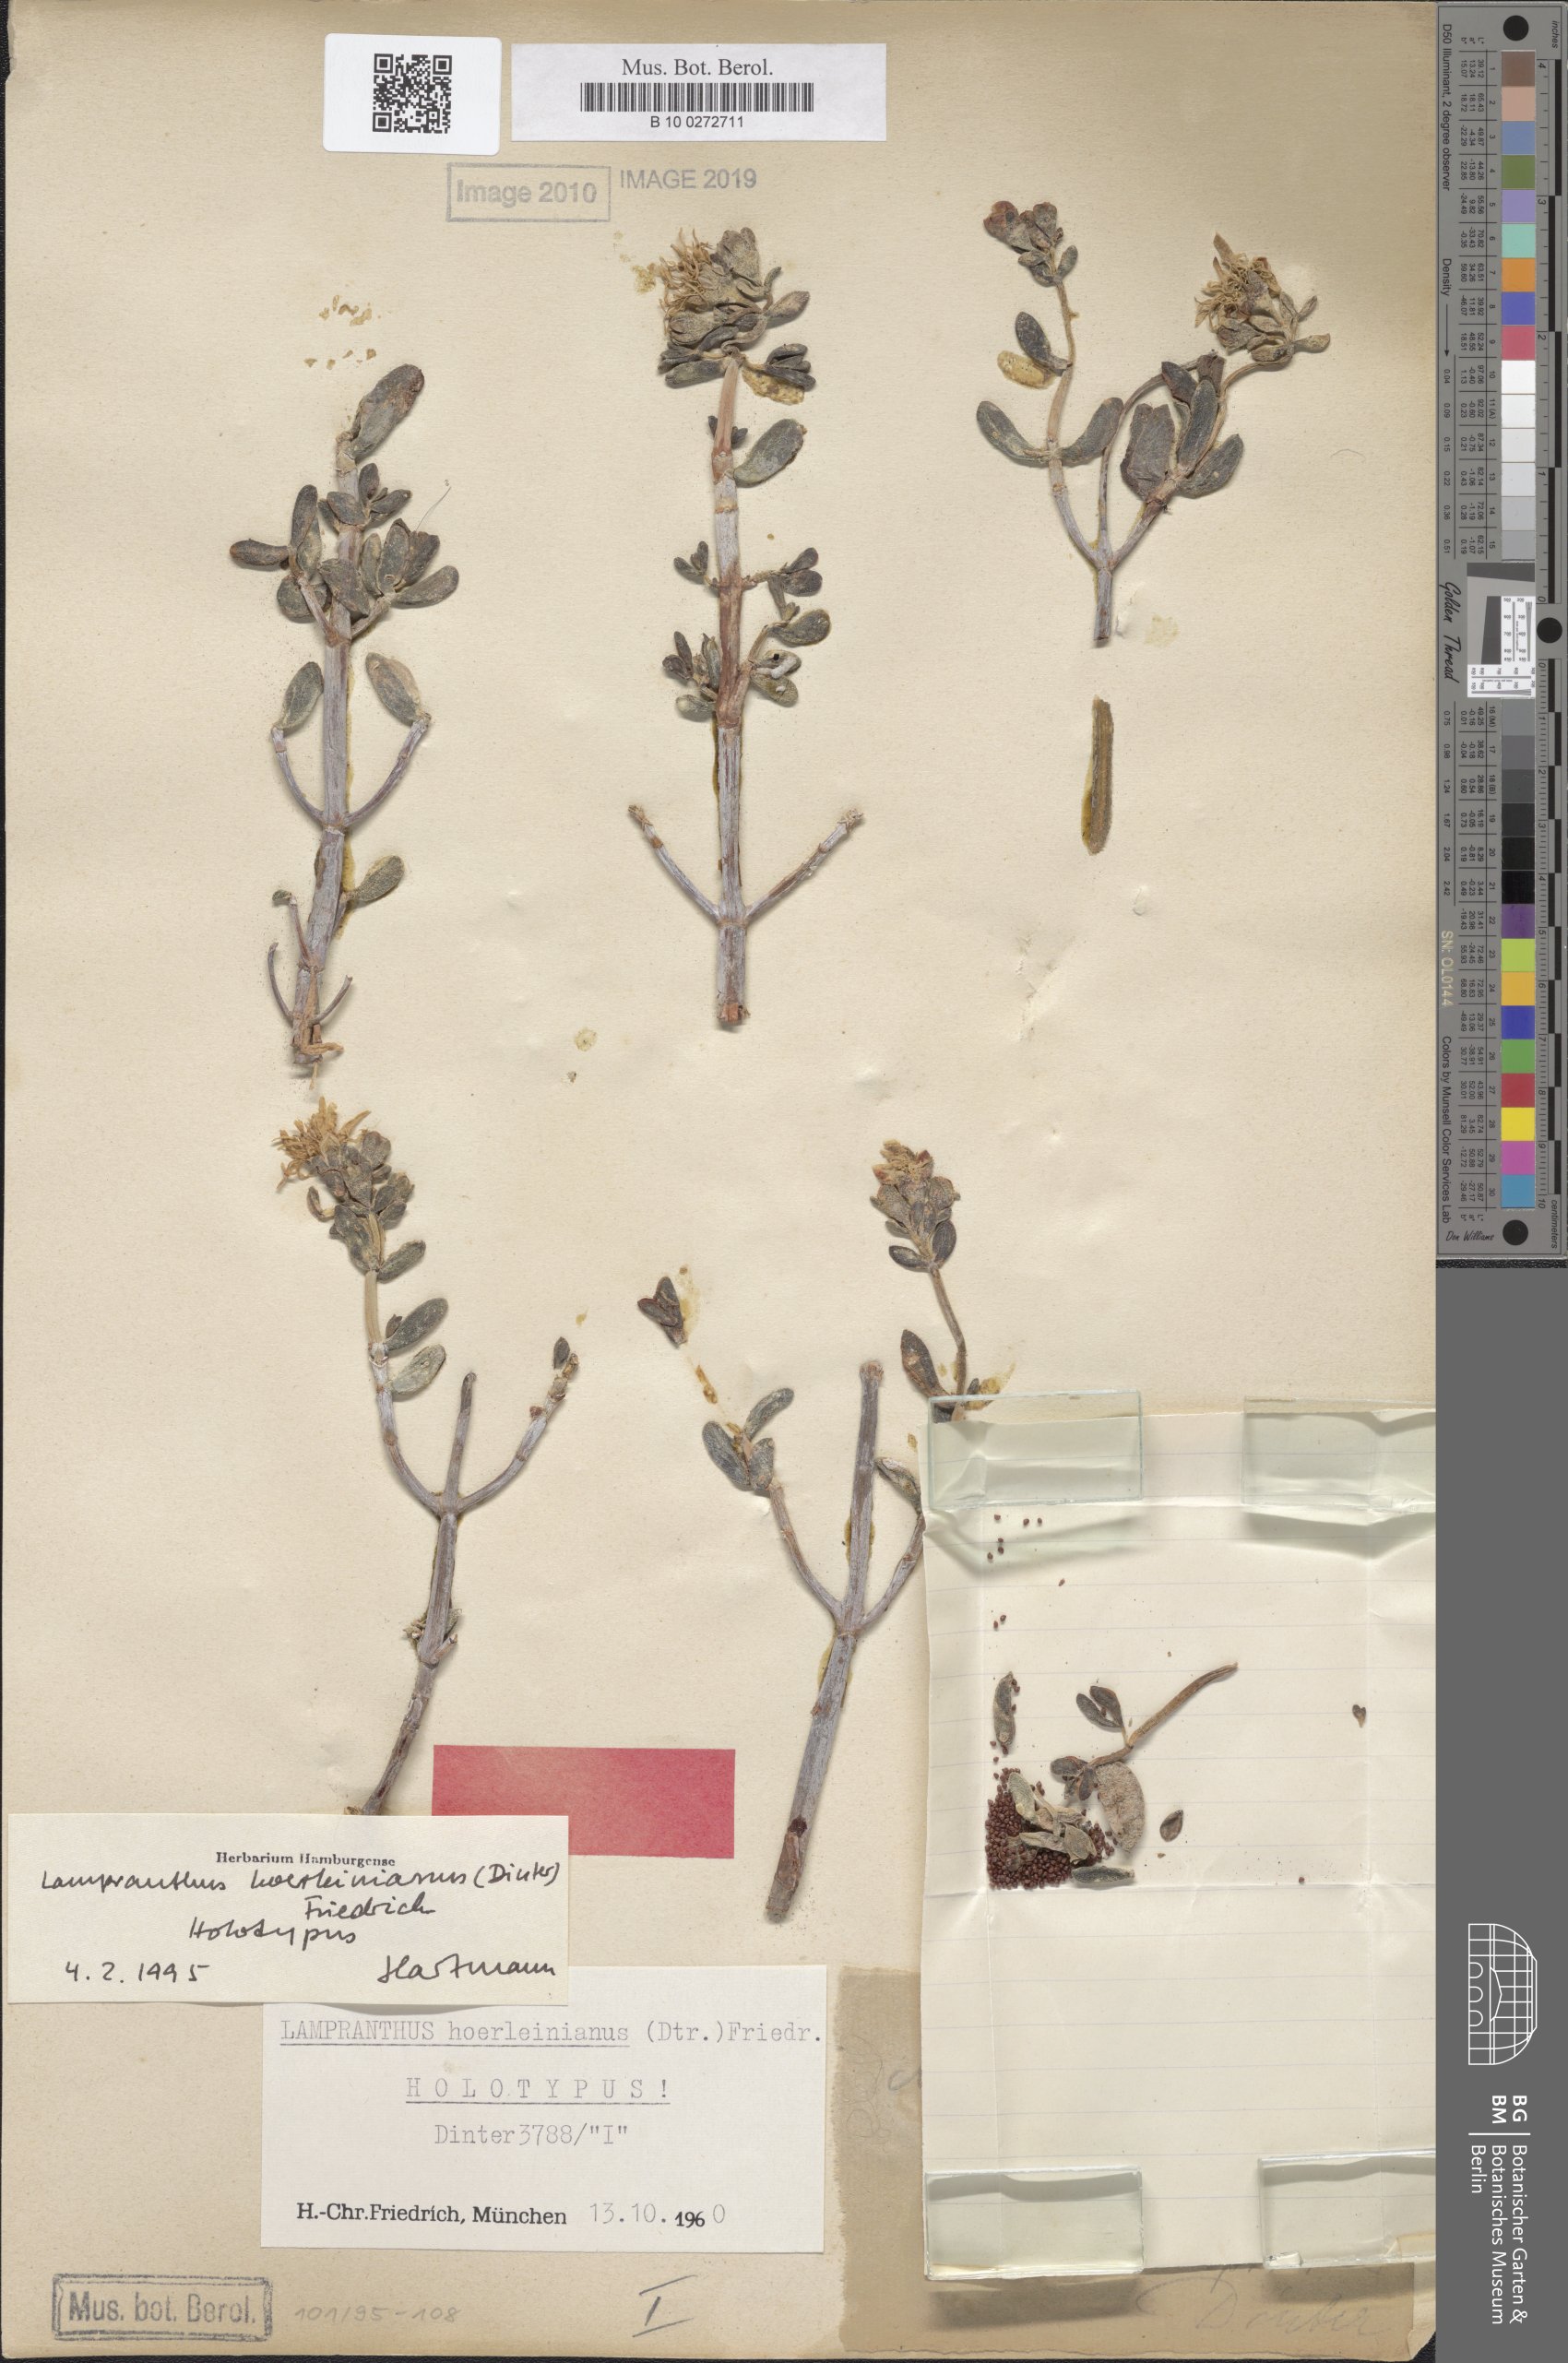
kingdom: Plantae
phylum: Tracheophyta
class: Magnoliopsida
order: Caryophyllales
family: Aizoaceae
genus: Lampranthus
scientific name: Lampranthus hoerleinianus
